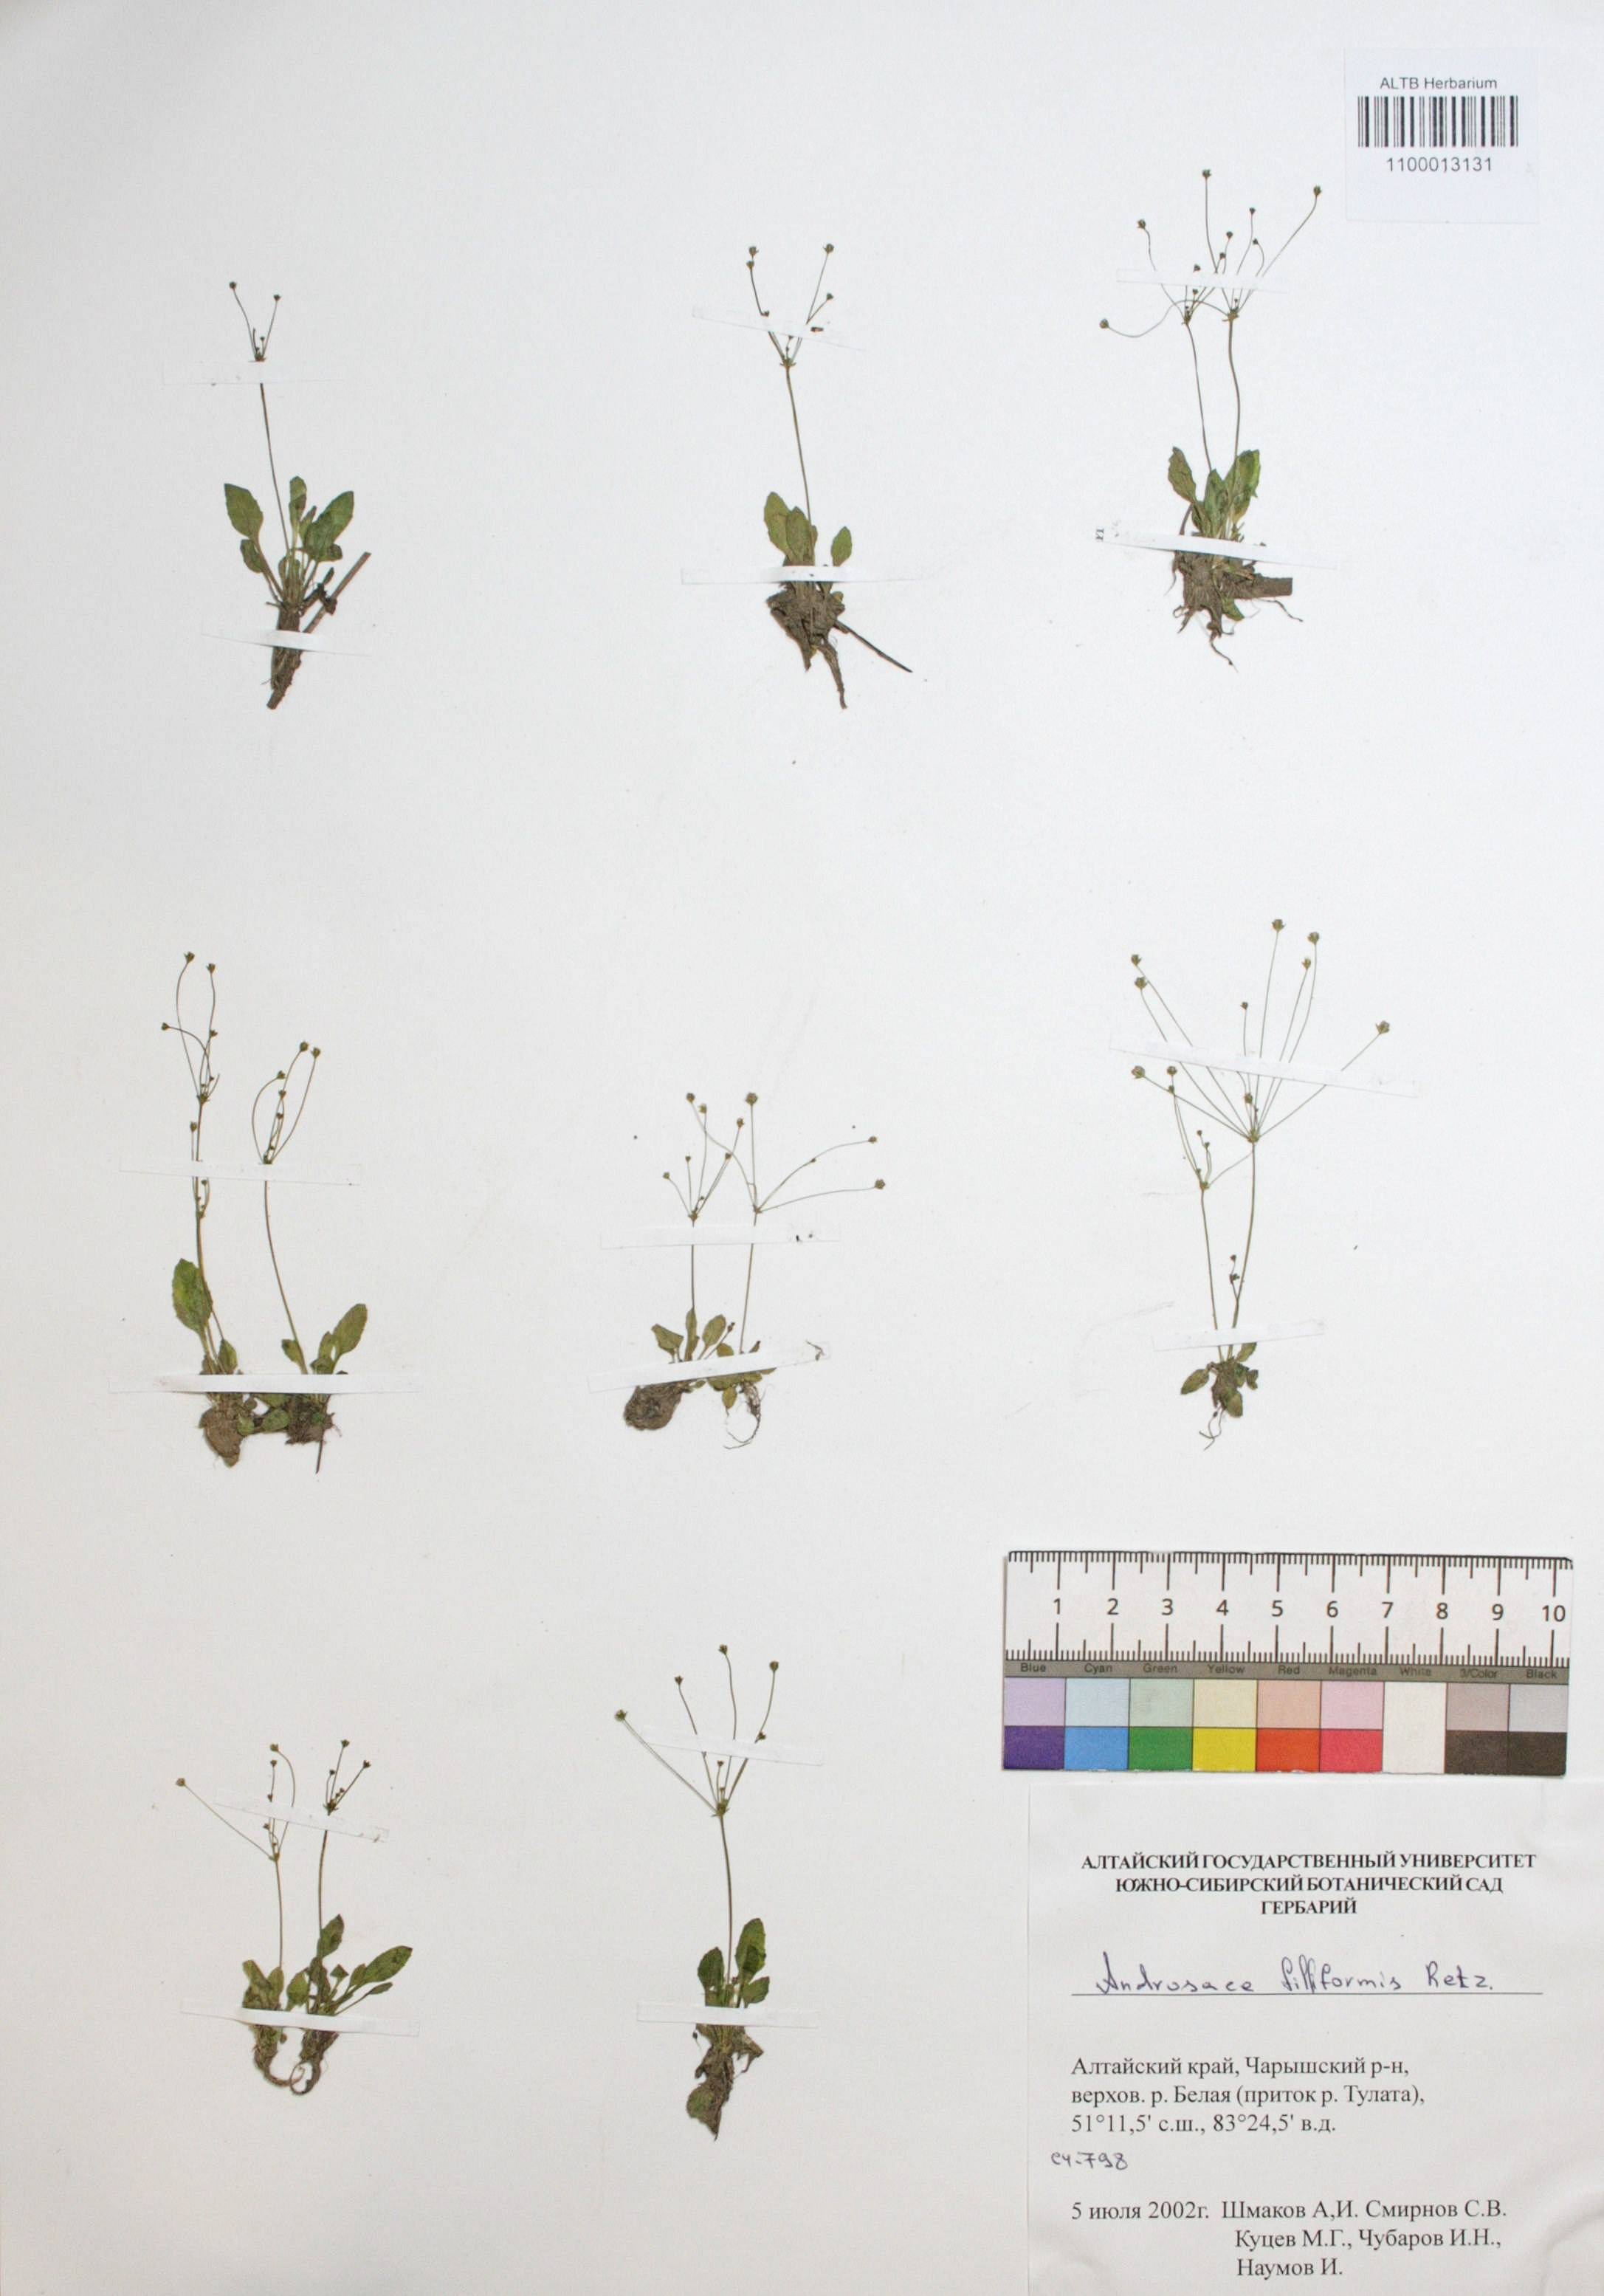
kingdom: Plantae
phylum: Tracheophyta
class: Magnoliopsida
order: Ericales
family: Primulaceae
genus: Androsace
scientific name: Androsace filiformis
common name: Filiform rock jasmine
